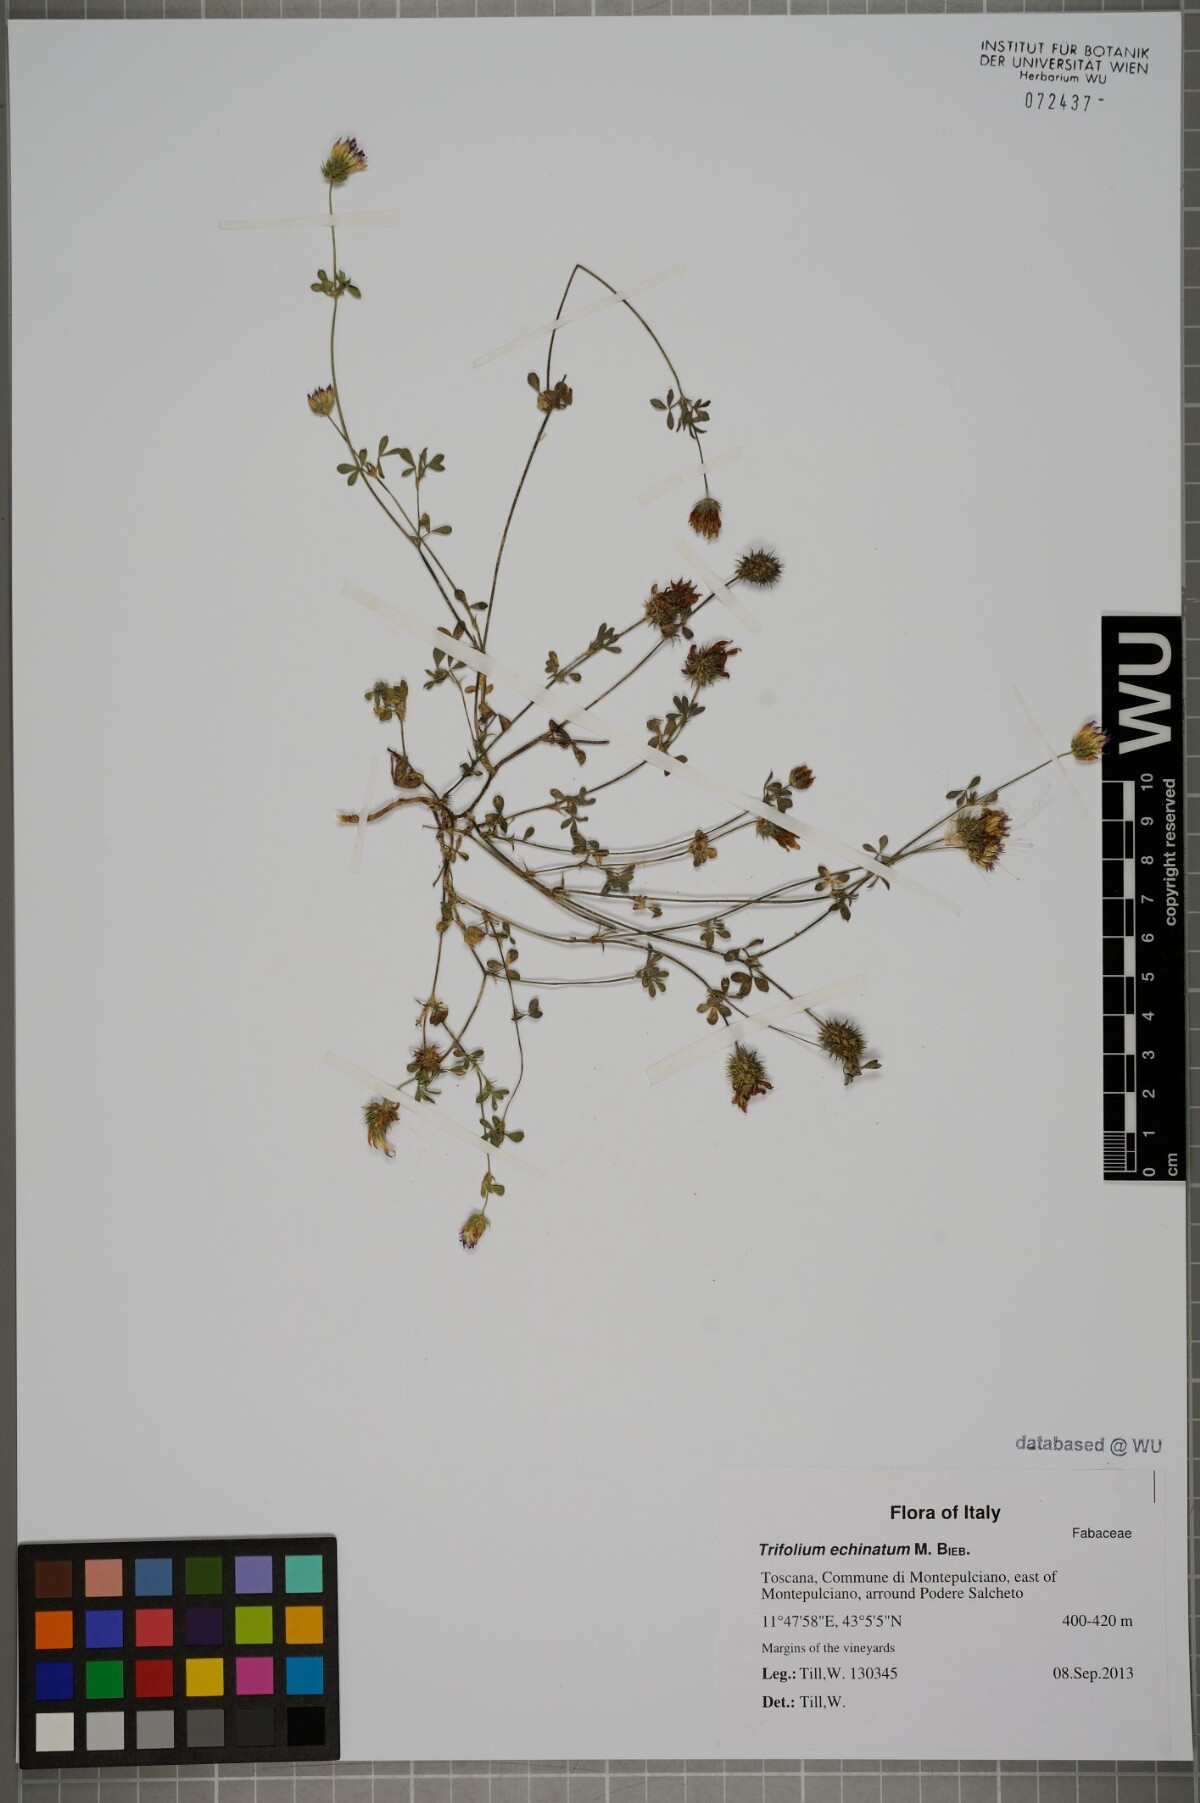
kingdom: Plantae
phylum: Tracheophyta
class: Magnoliopsida
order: Fabales
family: Fabaceae
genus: Trifolium
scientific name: Trifolium echinatum
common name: Hedgehog clover
